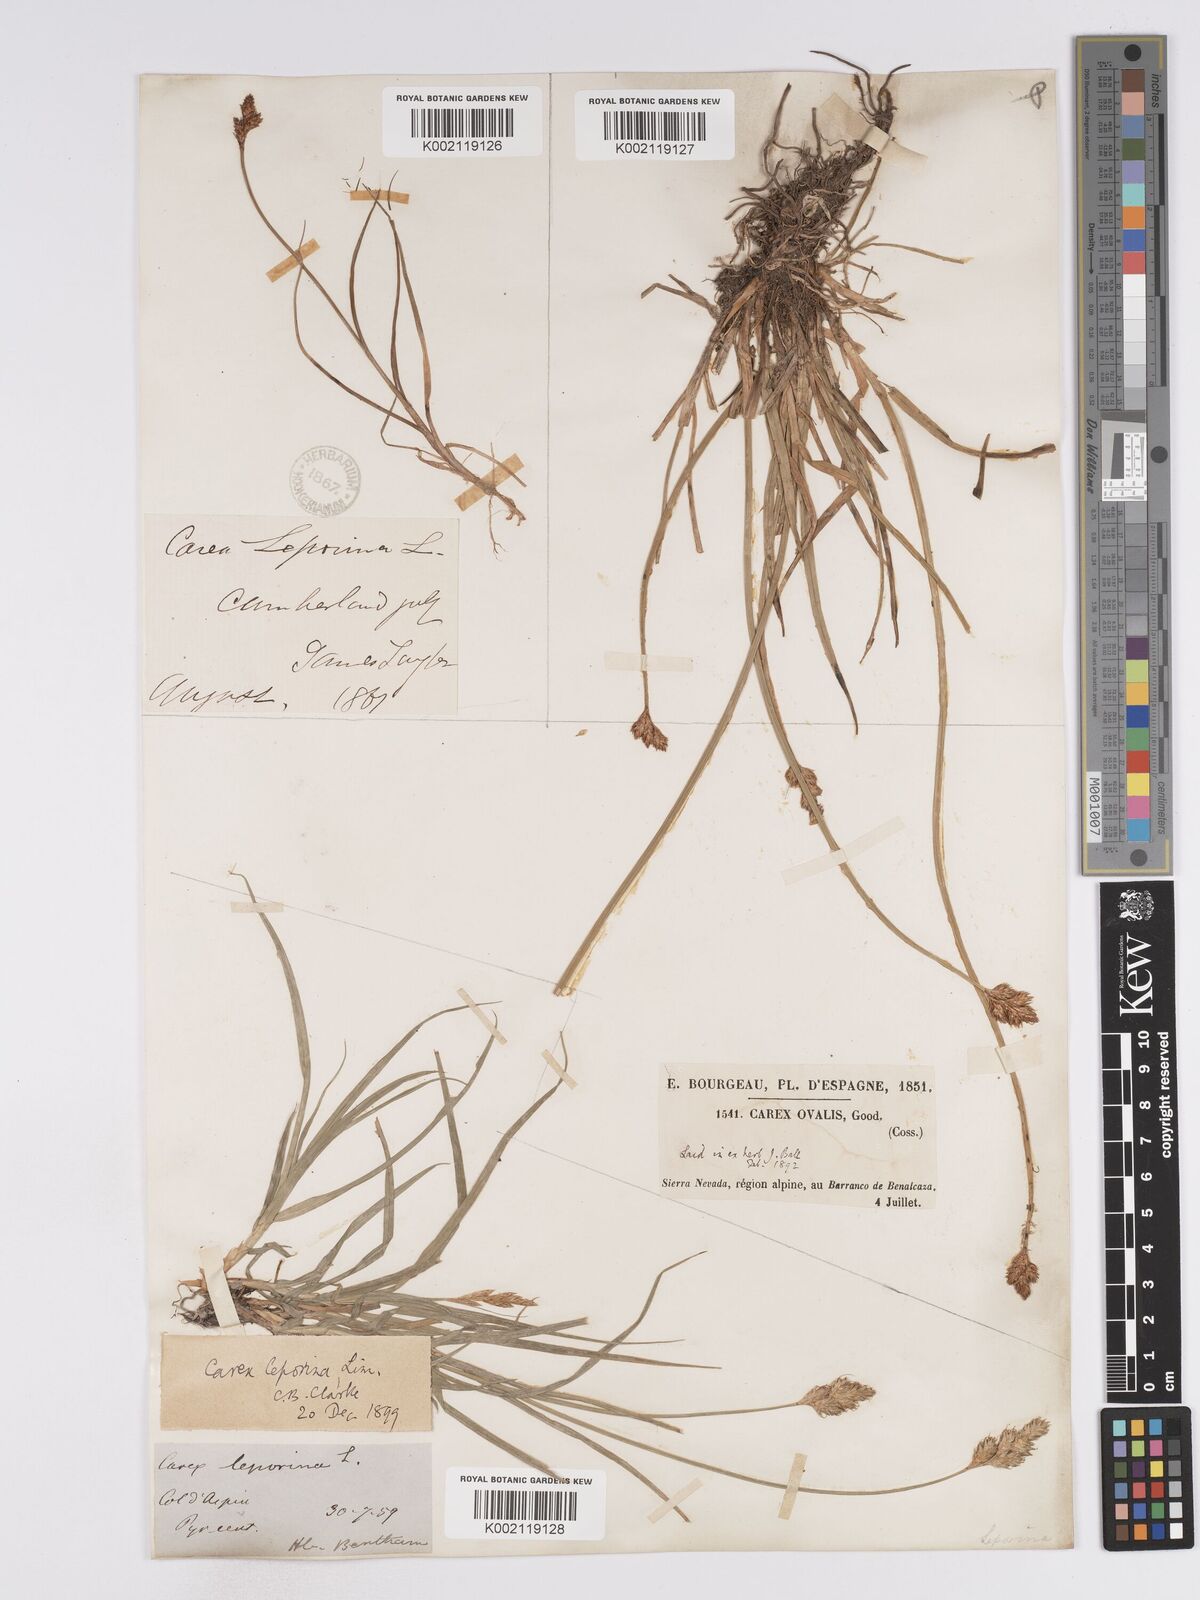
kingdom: Plantae
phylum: Tracheophyta
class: Liliopsida
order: Poales
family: Cyperaceae
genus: Carex
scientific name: Carex leporina
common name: Oval sedge
